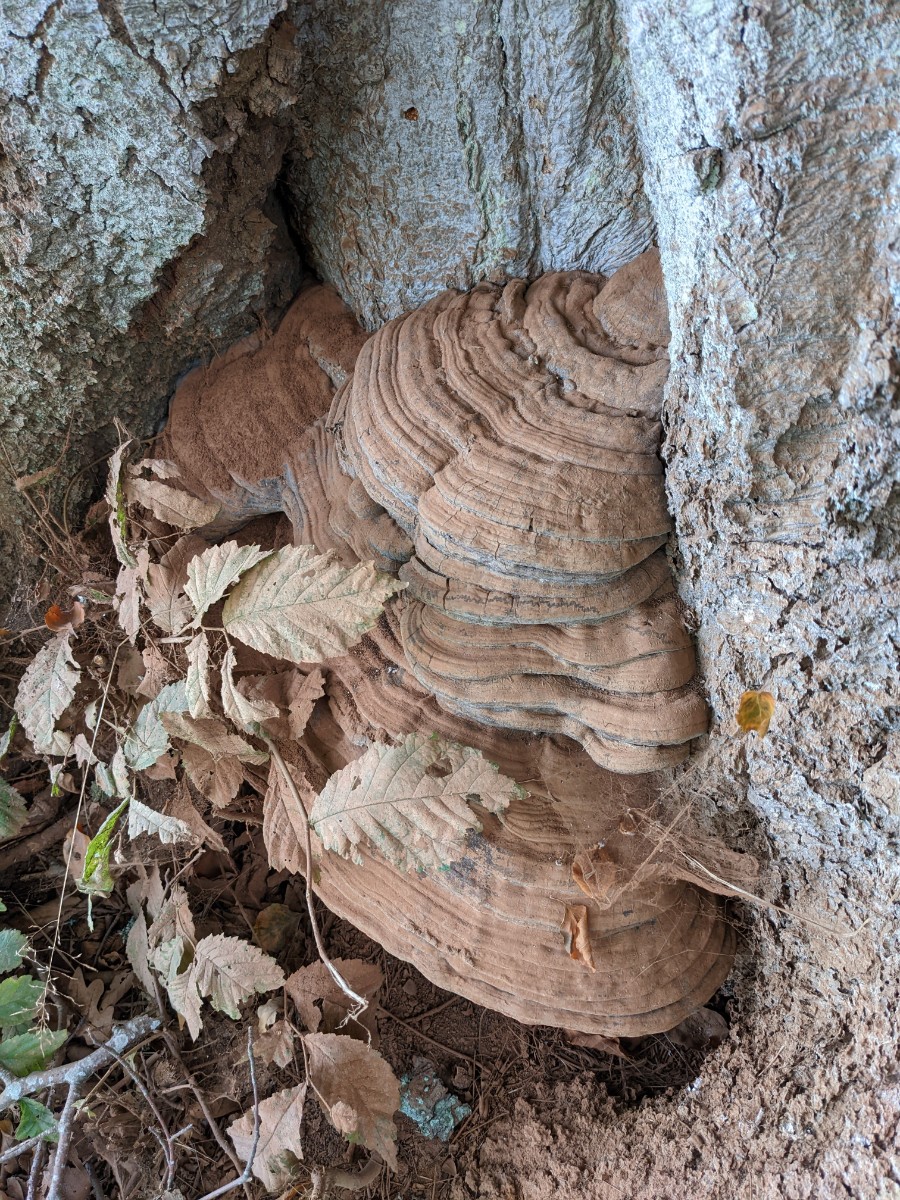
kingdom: Fungi
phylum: Basidiomycota
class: Agaricomycetes
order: Polyporales
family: Polyporaceae
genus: Ganoderma
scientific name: Ganoderma pfeifferi
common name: kobberrød lakporesvamp
